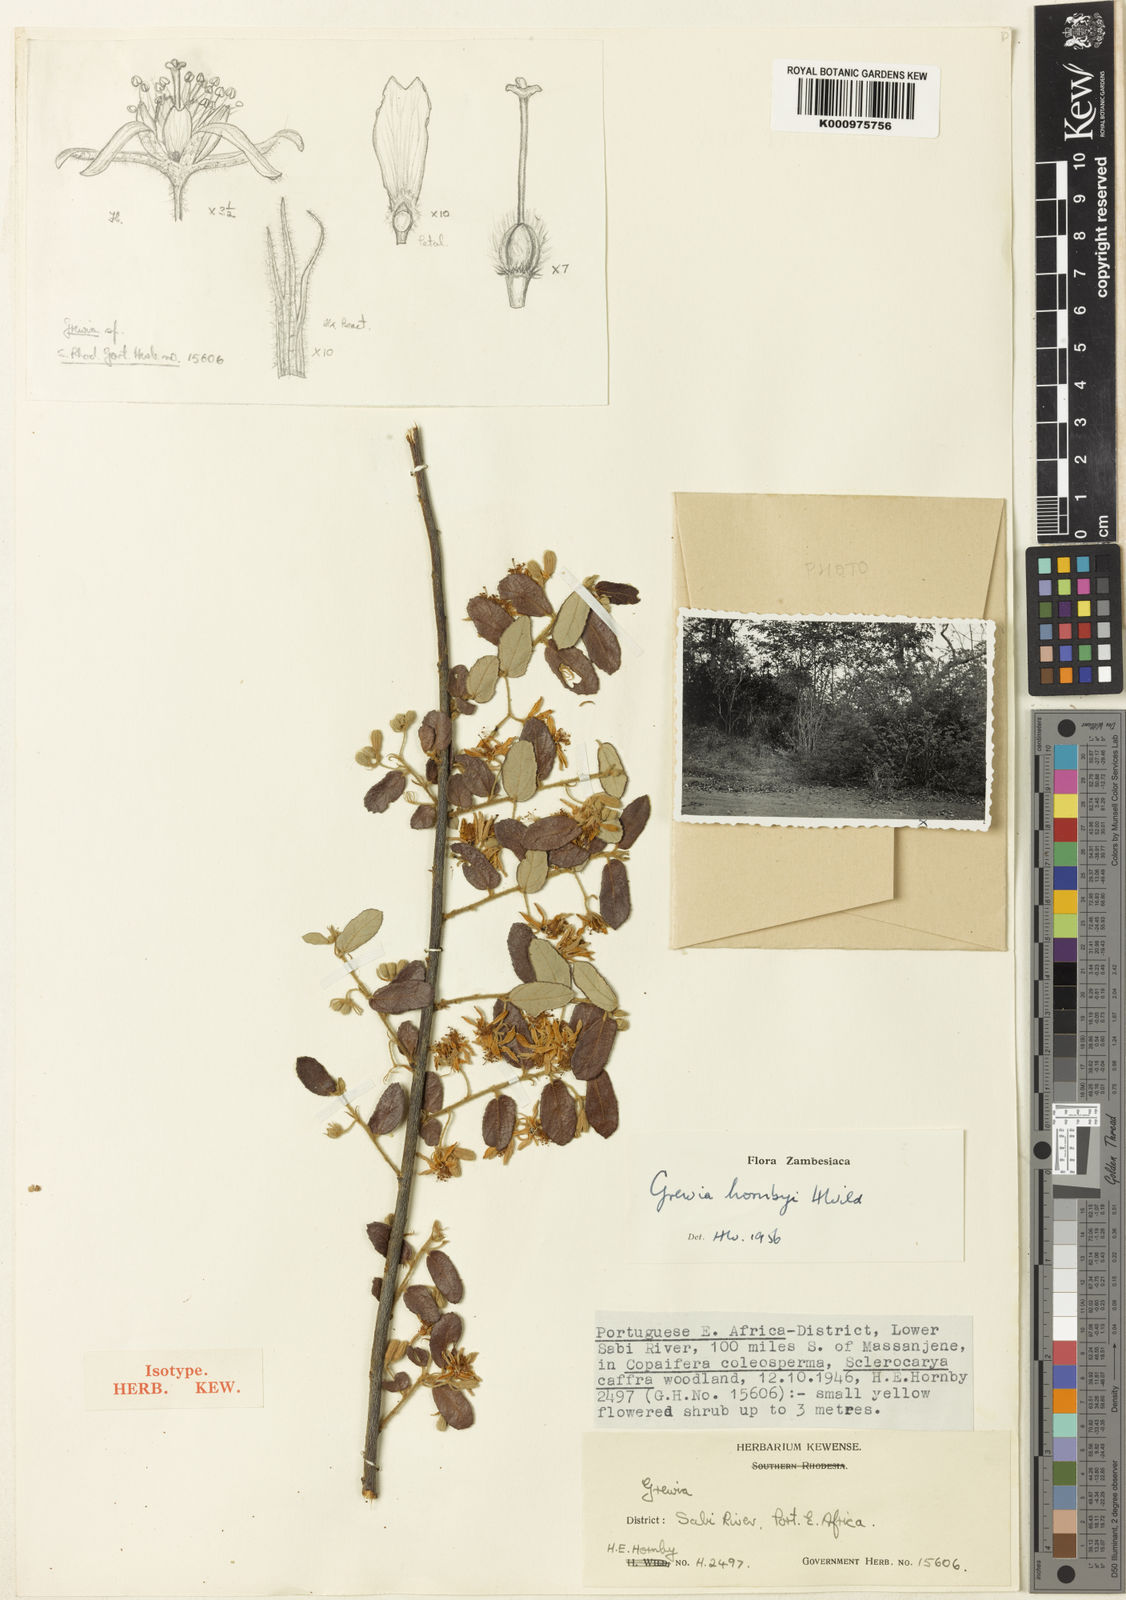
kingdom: Plantae
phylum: Tracheophyta
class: Magnoliopsida
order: Malvales
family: Malvaceae
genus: Grewia
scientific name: Grewia hornbyi
